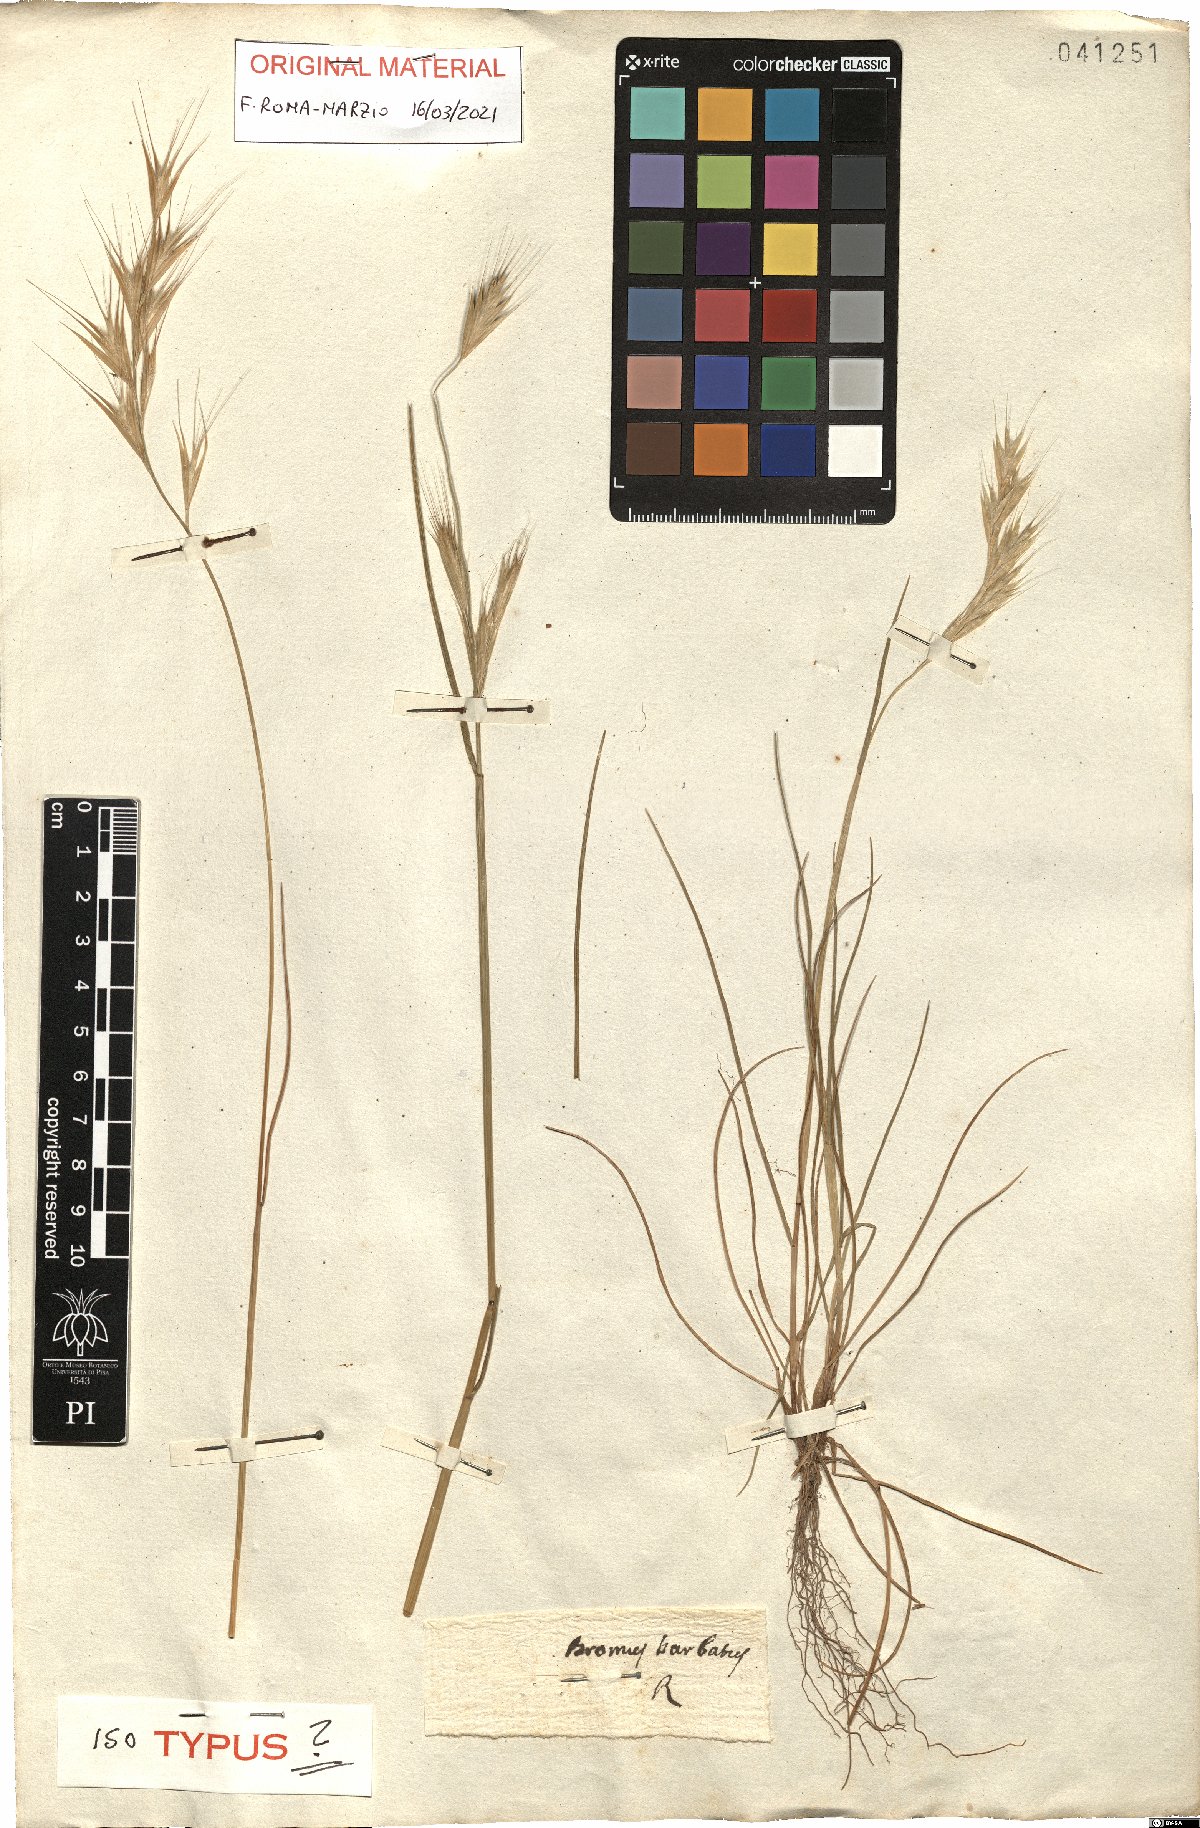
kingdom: Plantae
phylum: Tracheophyta
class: Liliopsida
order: Poales
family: Poaceae
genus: Festuca
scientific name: Festuca alopecuros
